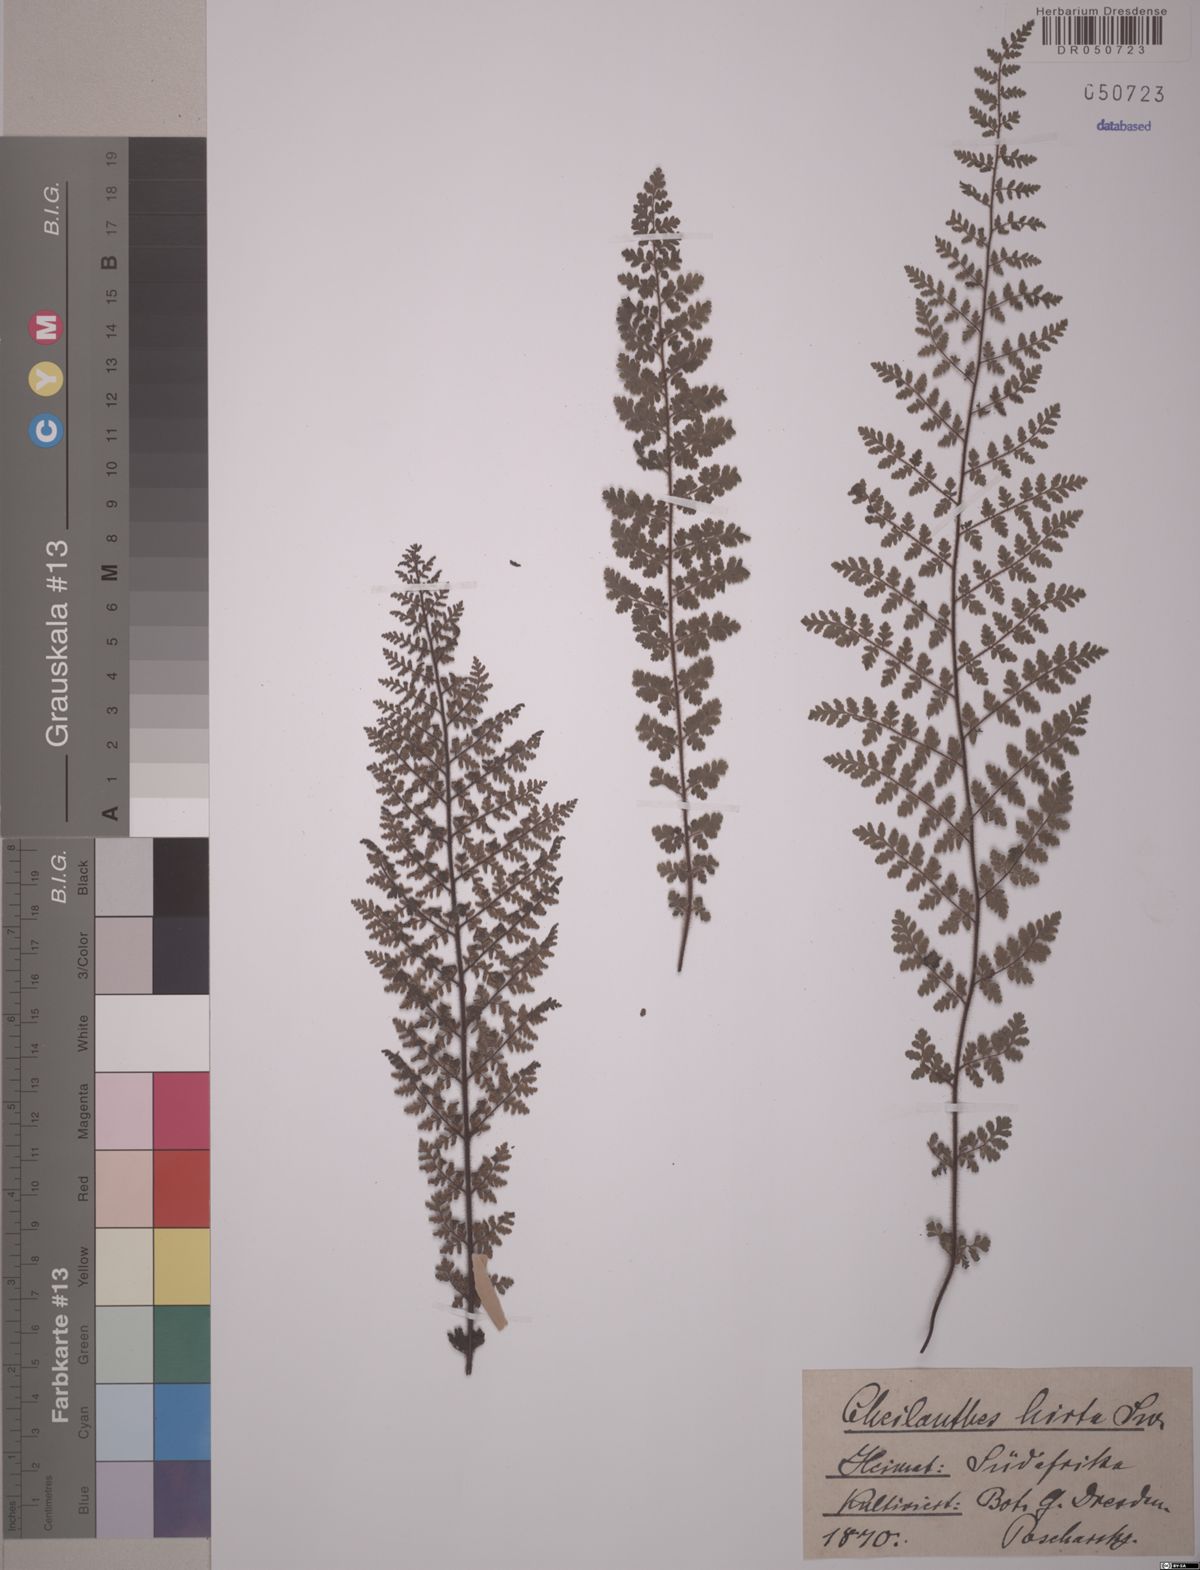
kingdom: Plantae
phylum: Tracheophyta
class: Polypodiopsida
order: Polypodiales
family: Pteridaceae
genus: Cheilanthes
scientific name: Cheilanthes hirta
